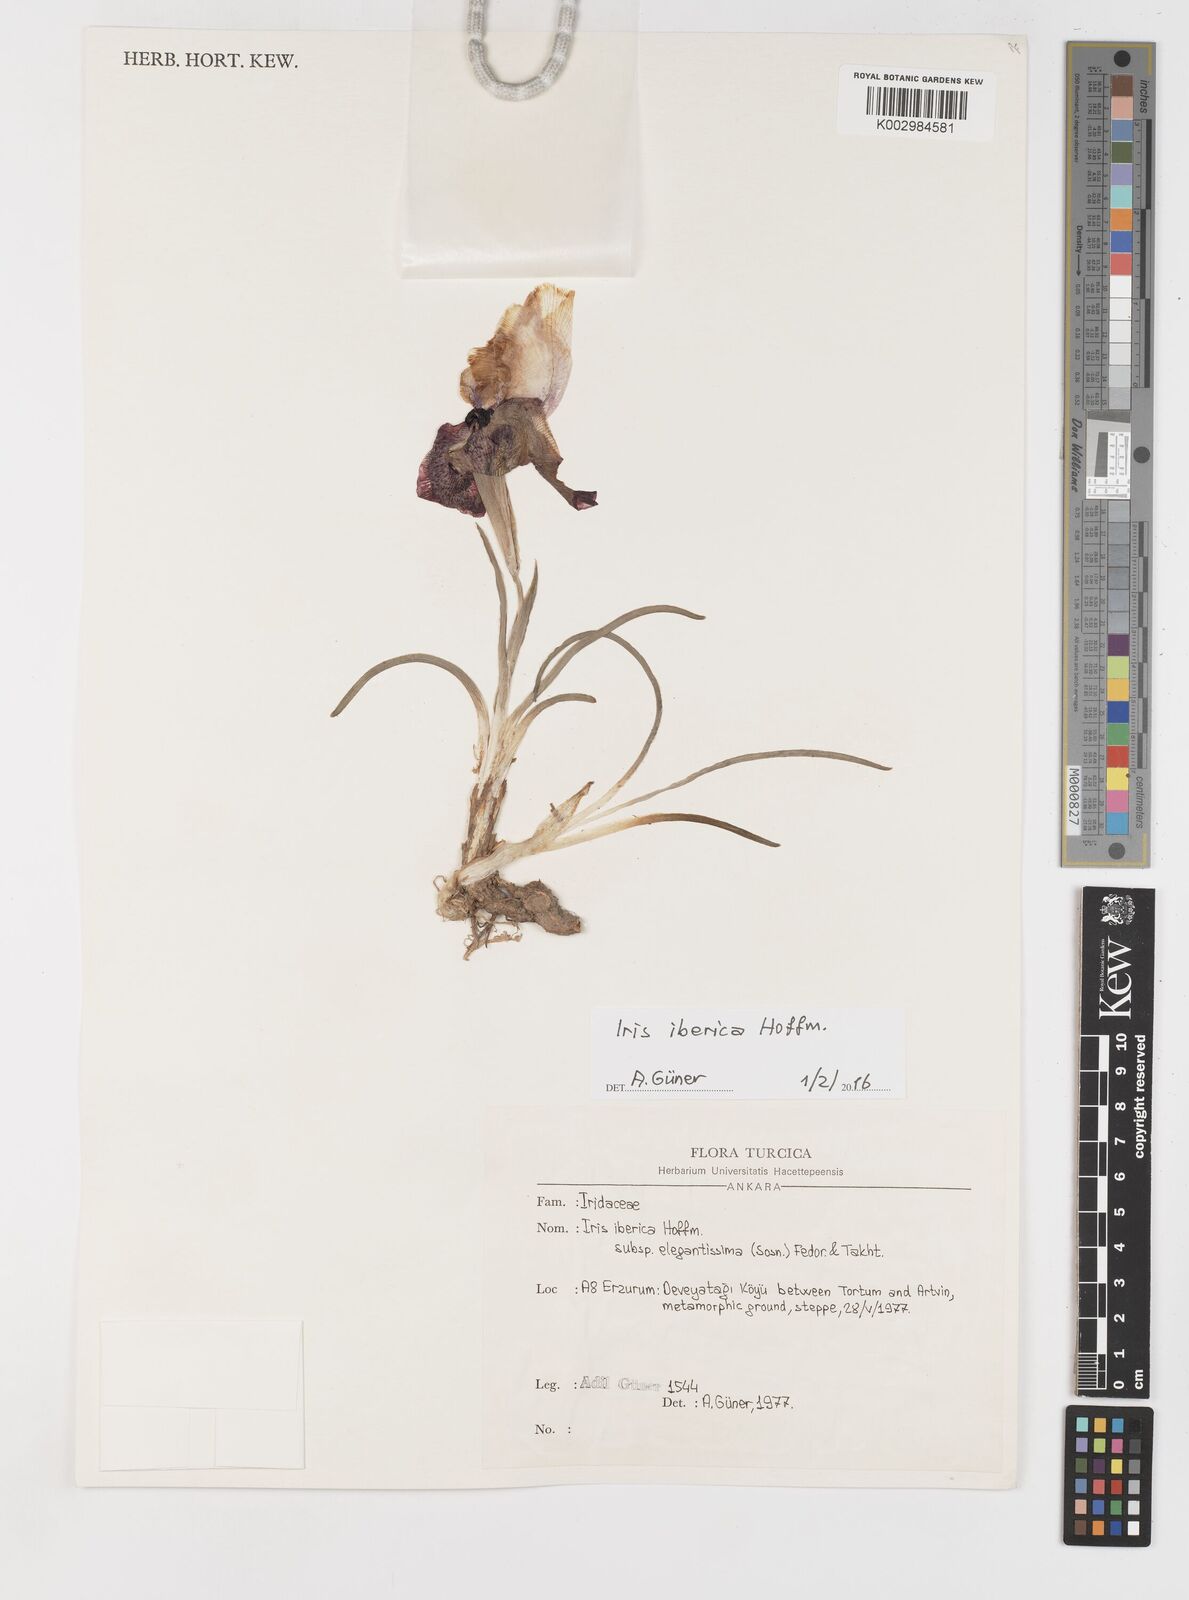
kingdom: Plantae
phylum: Tracheophyta
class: Liliopsida
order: Asparagales
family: Iridaceae
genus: Iris
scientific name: Iris iberica
